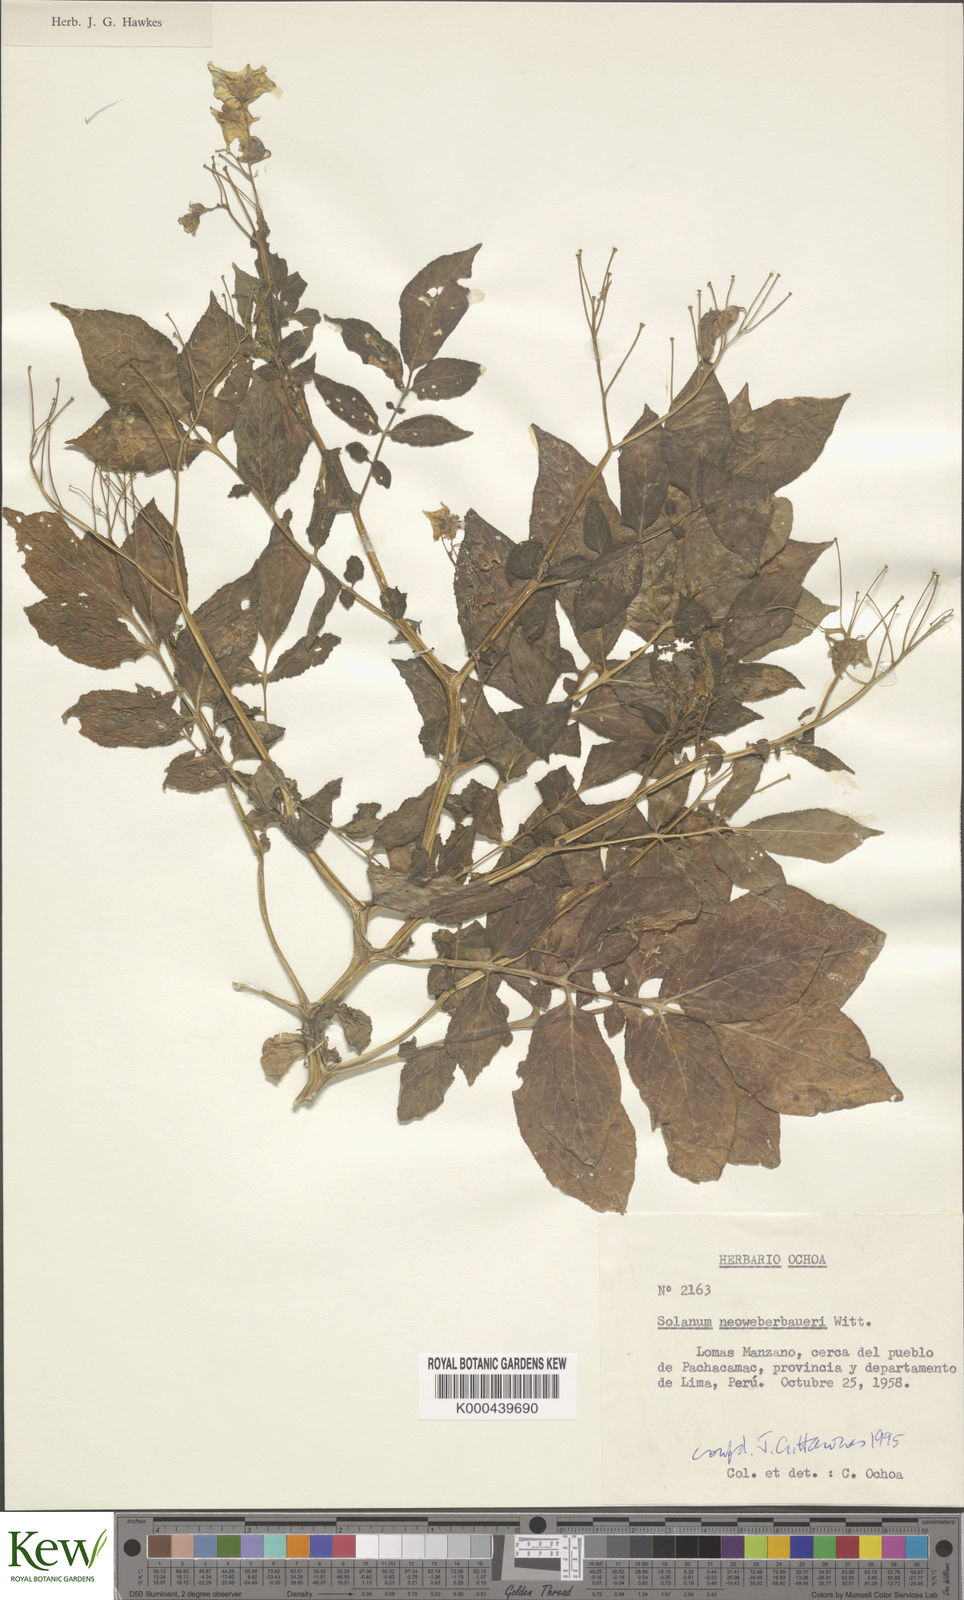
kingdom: Plantae
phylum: Tracheophyta
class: Magnoliopsida
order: Solanales
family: Solanaceae
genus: Solanum
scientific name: Solanum neoweberbaueri
